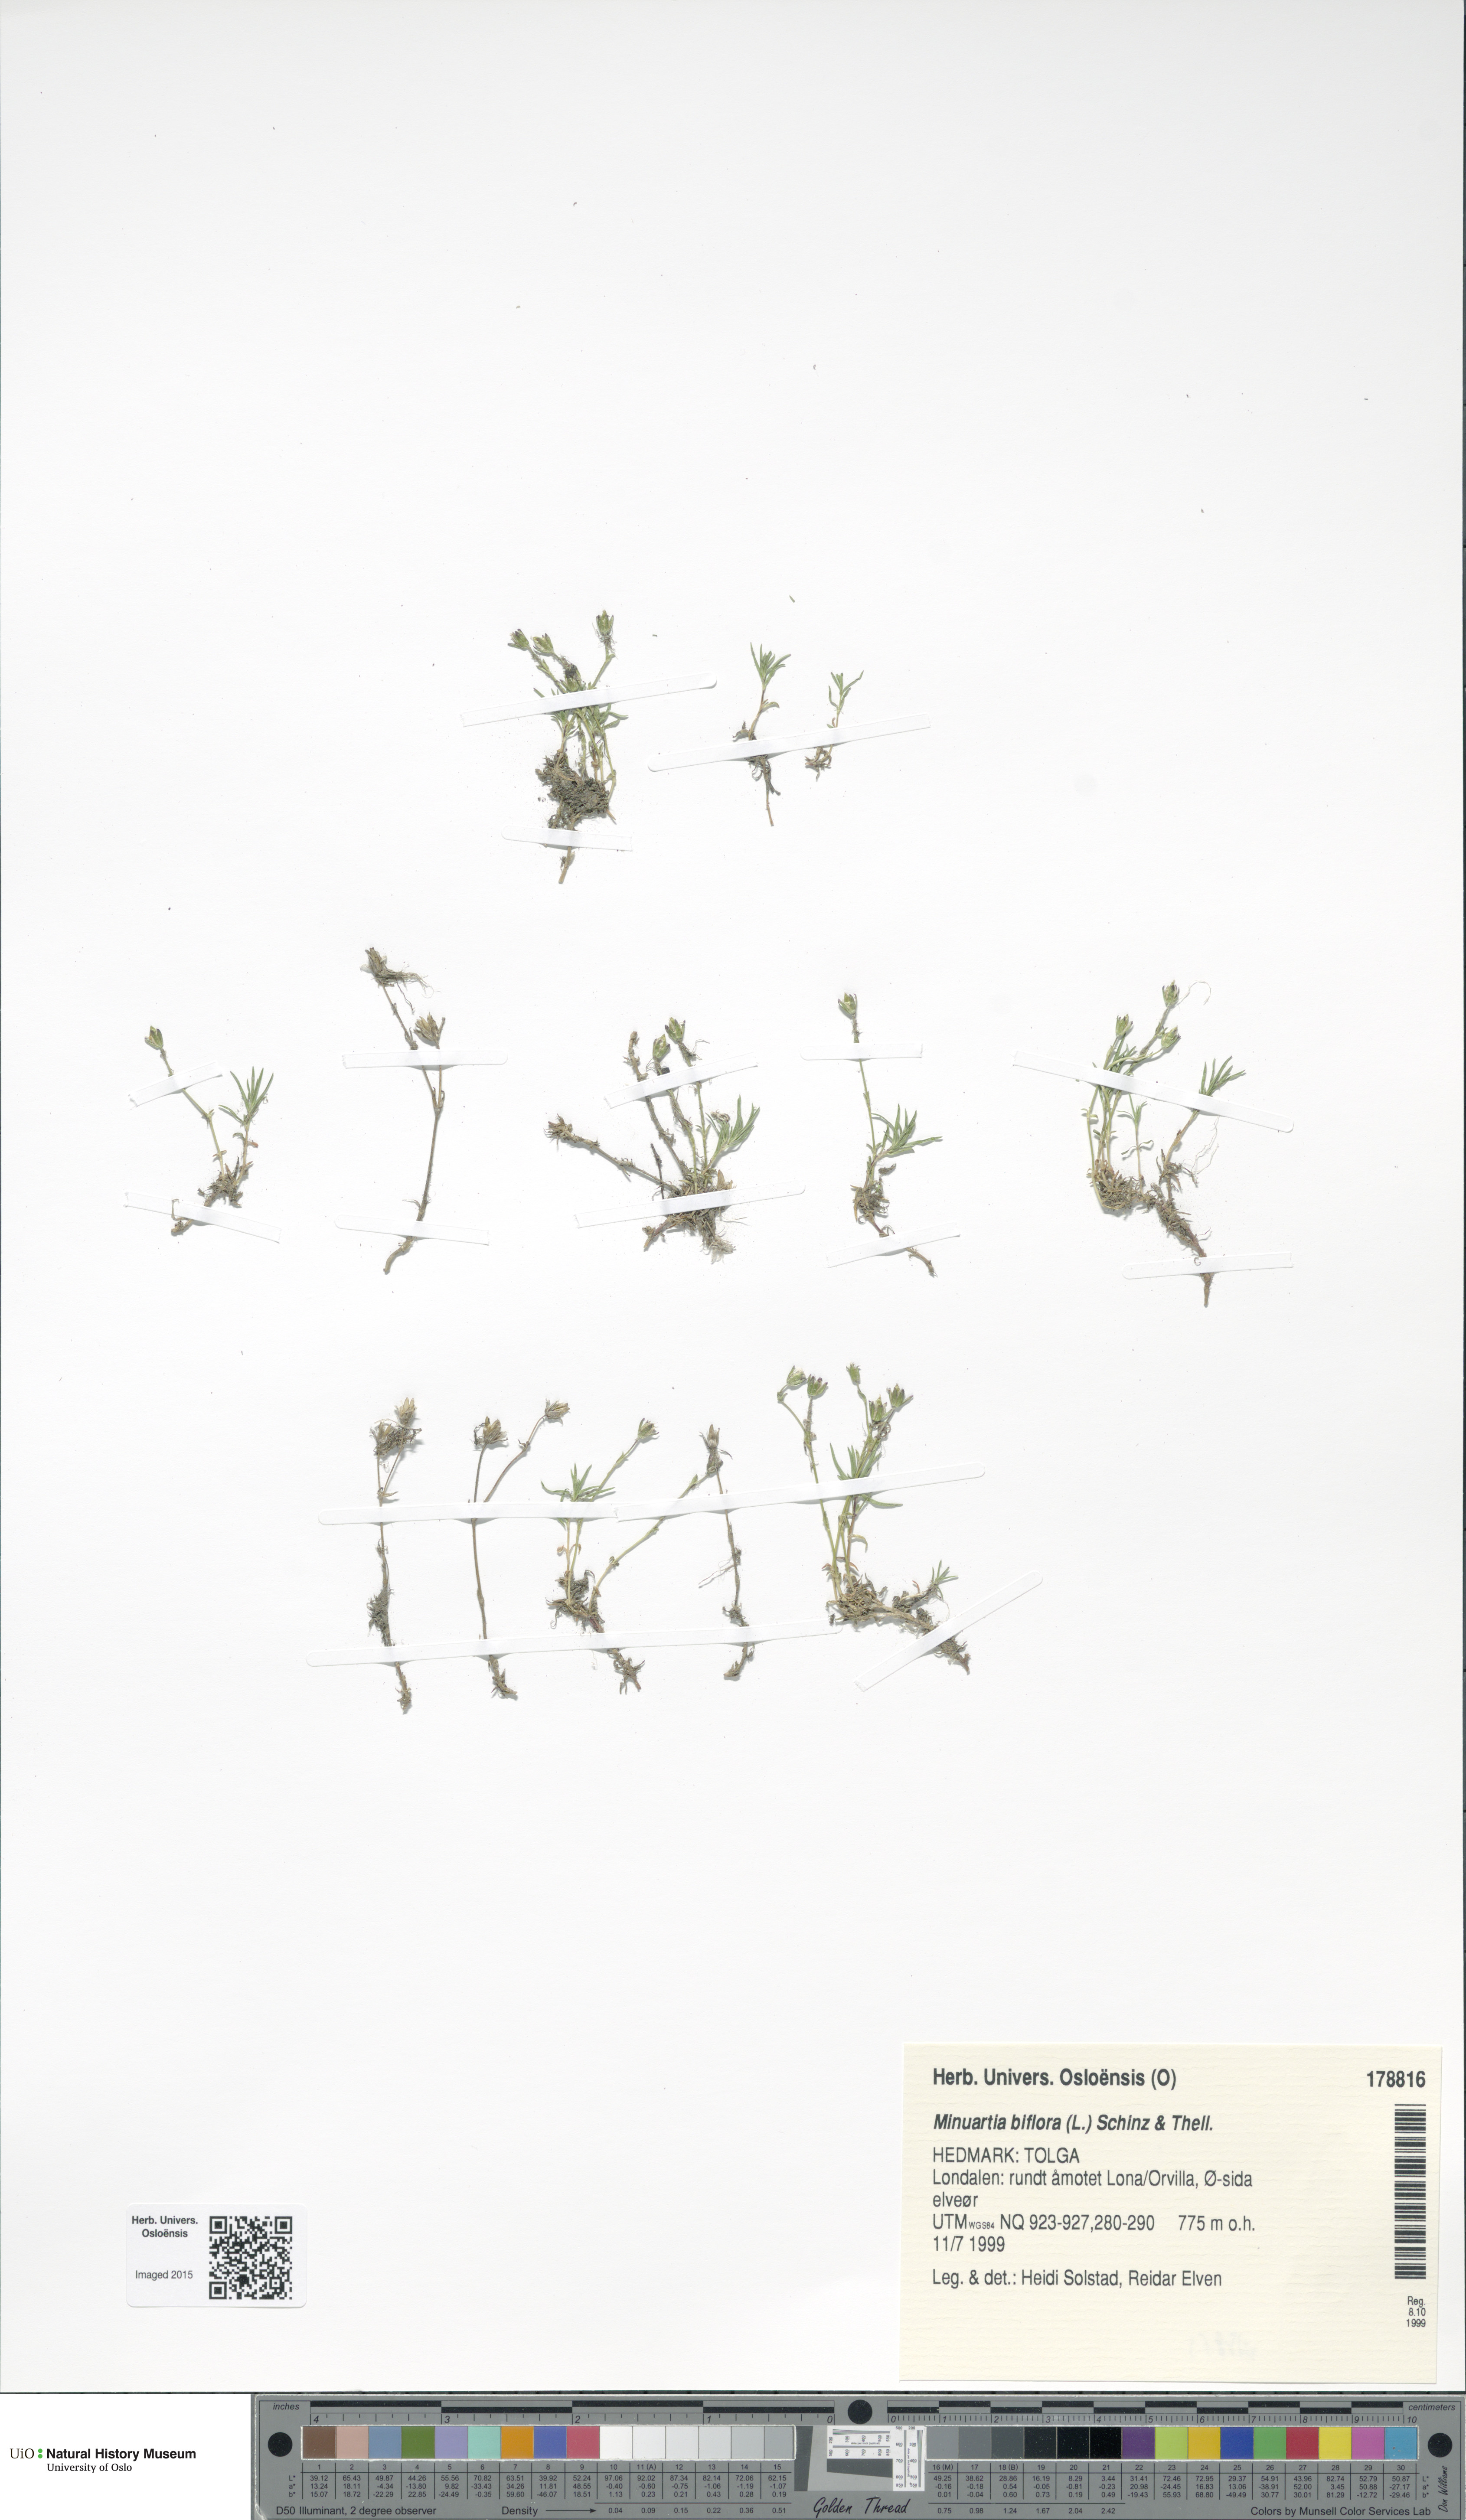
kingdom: Plantae
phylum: Tracheophyta
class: Magnoliopsida
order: Caryophyllales
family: Caryophyllaceae
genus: Cherleria
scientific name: Cherleria biflora
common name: Mountain sandwort
